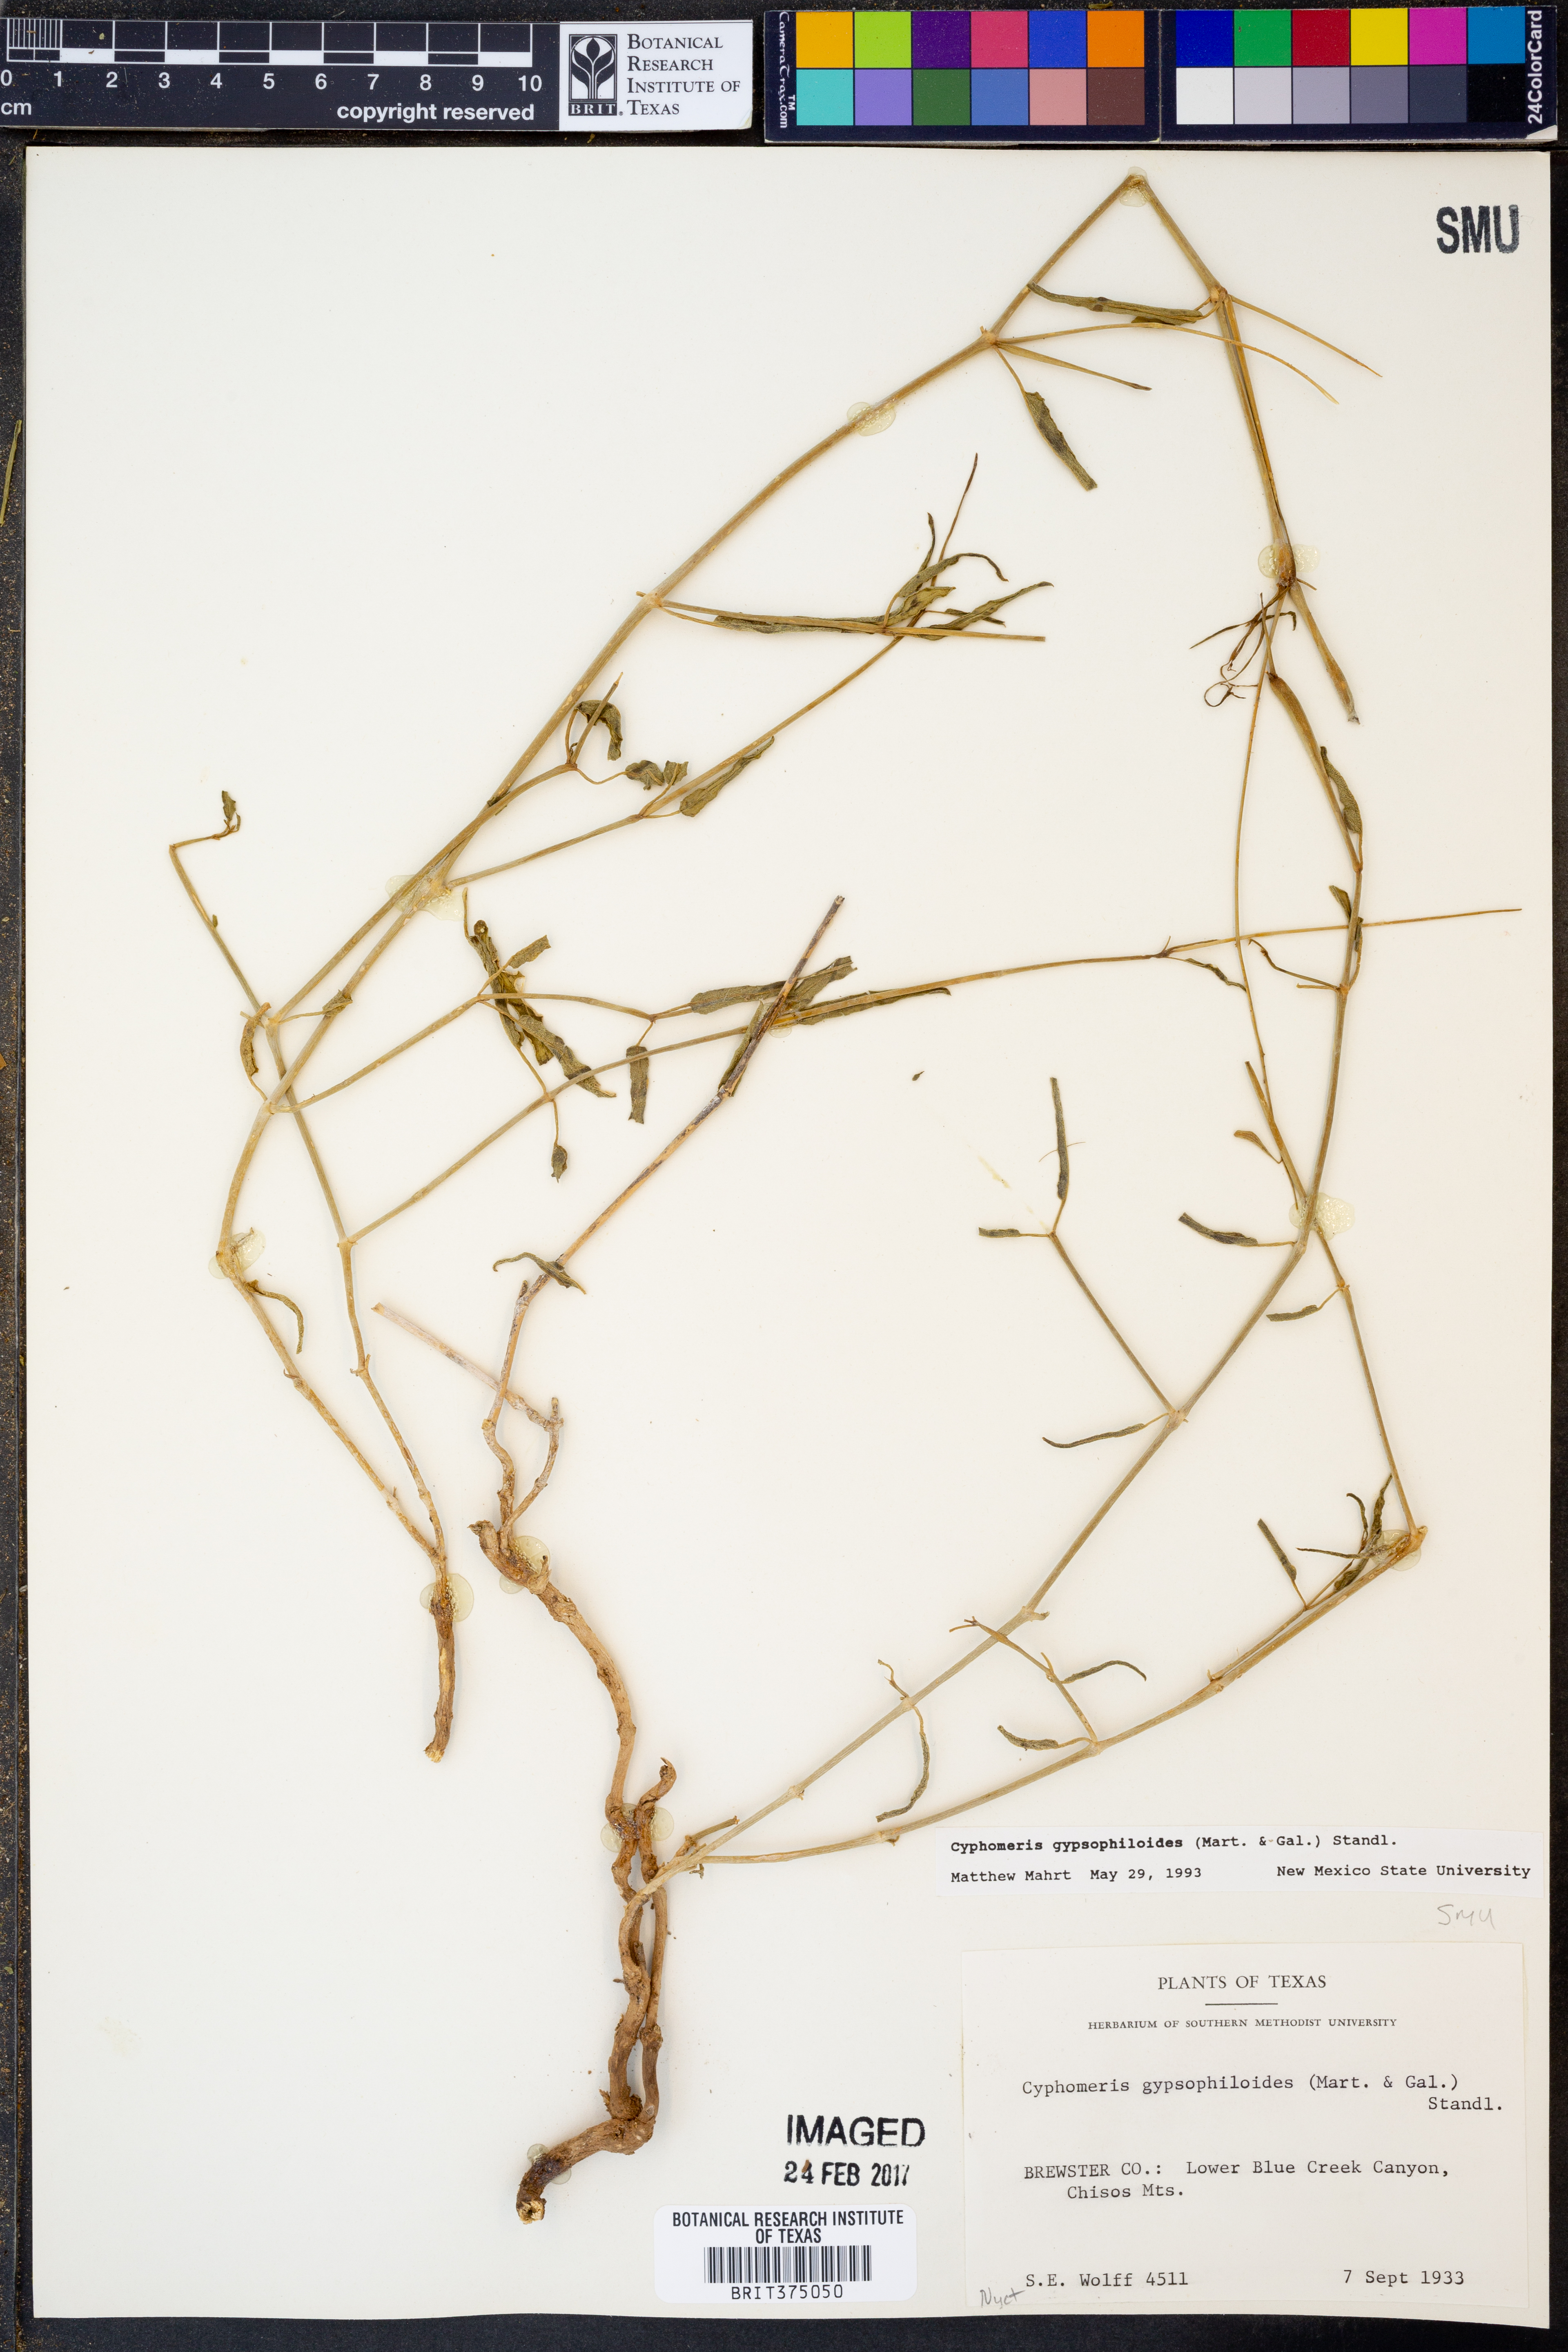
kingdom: Plantae
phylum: Tracheophyta
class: Magnoliopsida
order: Caryophyllales
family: Nyctaginaceae
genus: Cyphomeris
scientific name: Cyphomeris gypsophiloides
